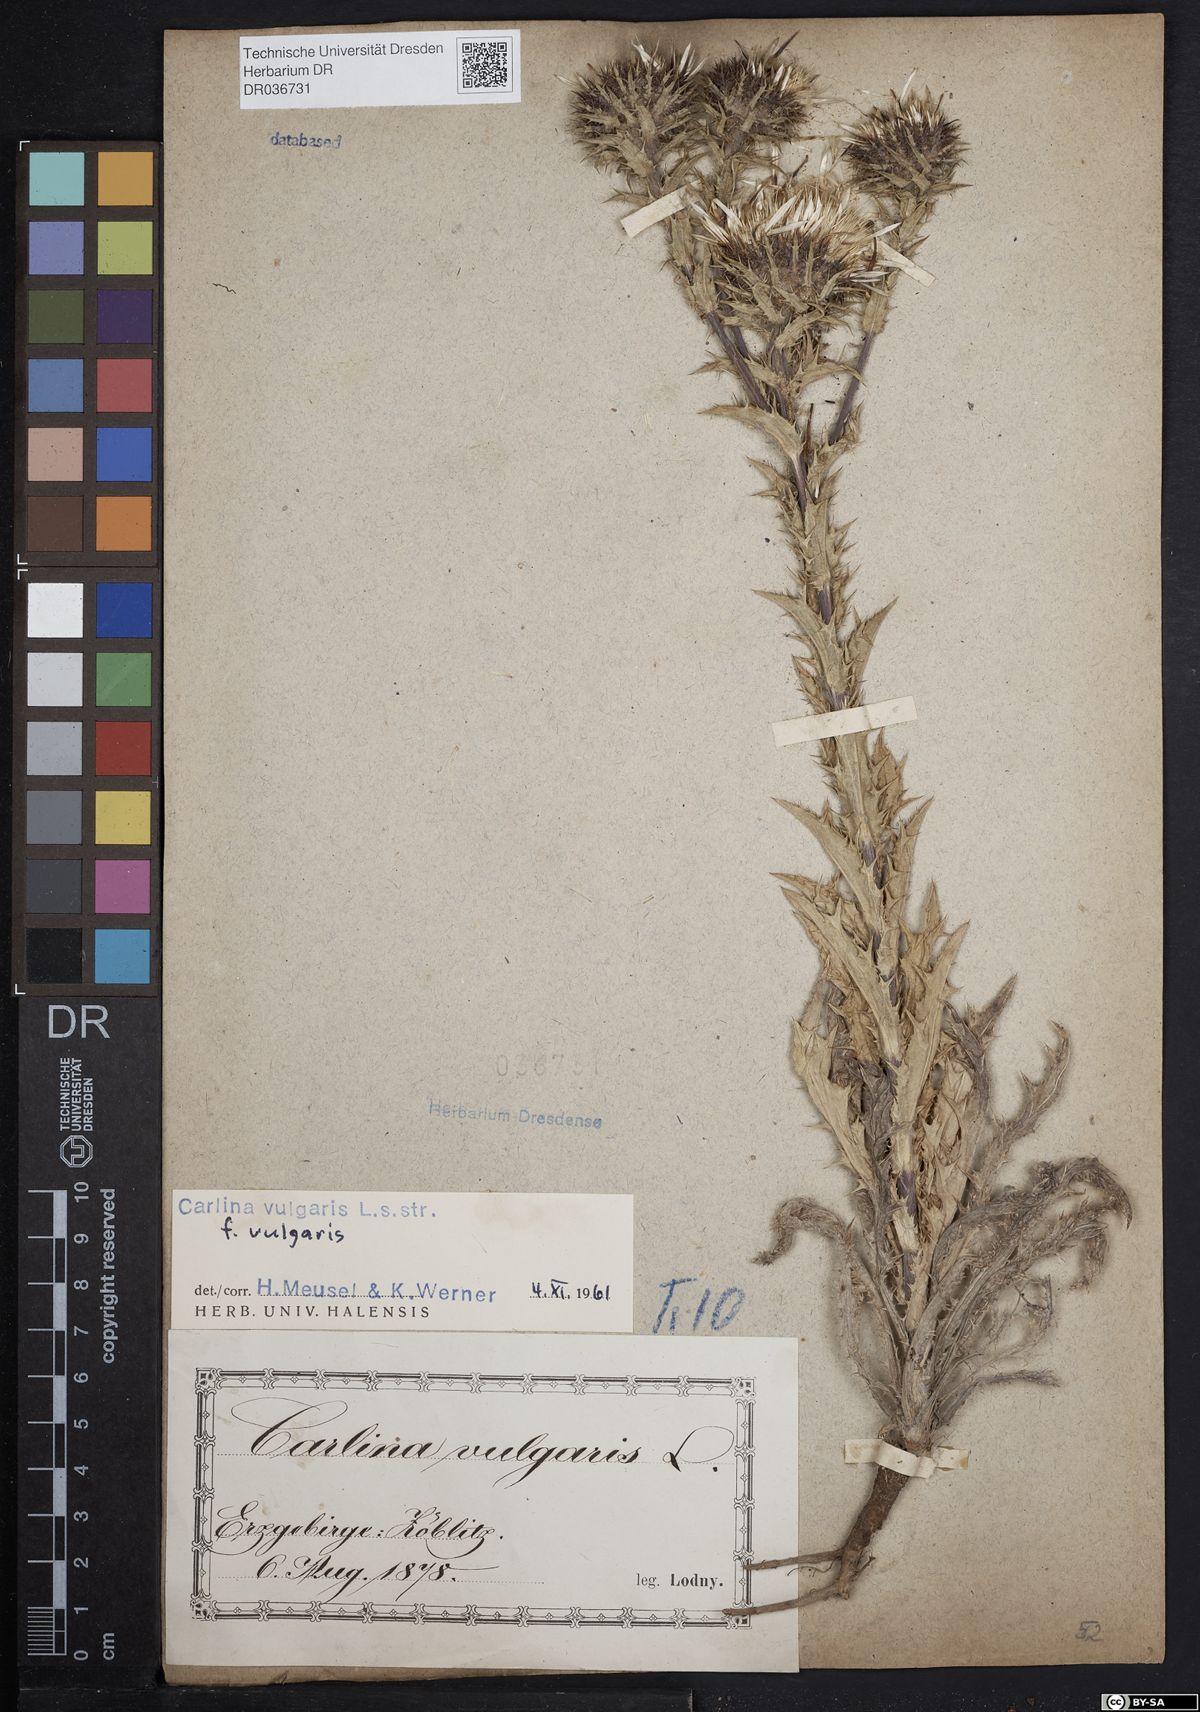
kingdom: Plantae
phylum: Tracheophyta
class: Magnoliopsida
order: Asterales
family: Asteraceae
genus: Carlina
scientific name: Carlina vulgaris
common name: Carline thistle
